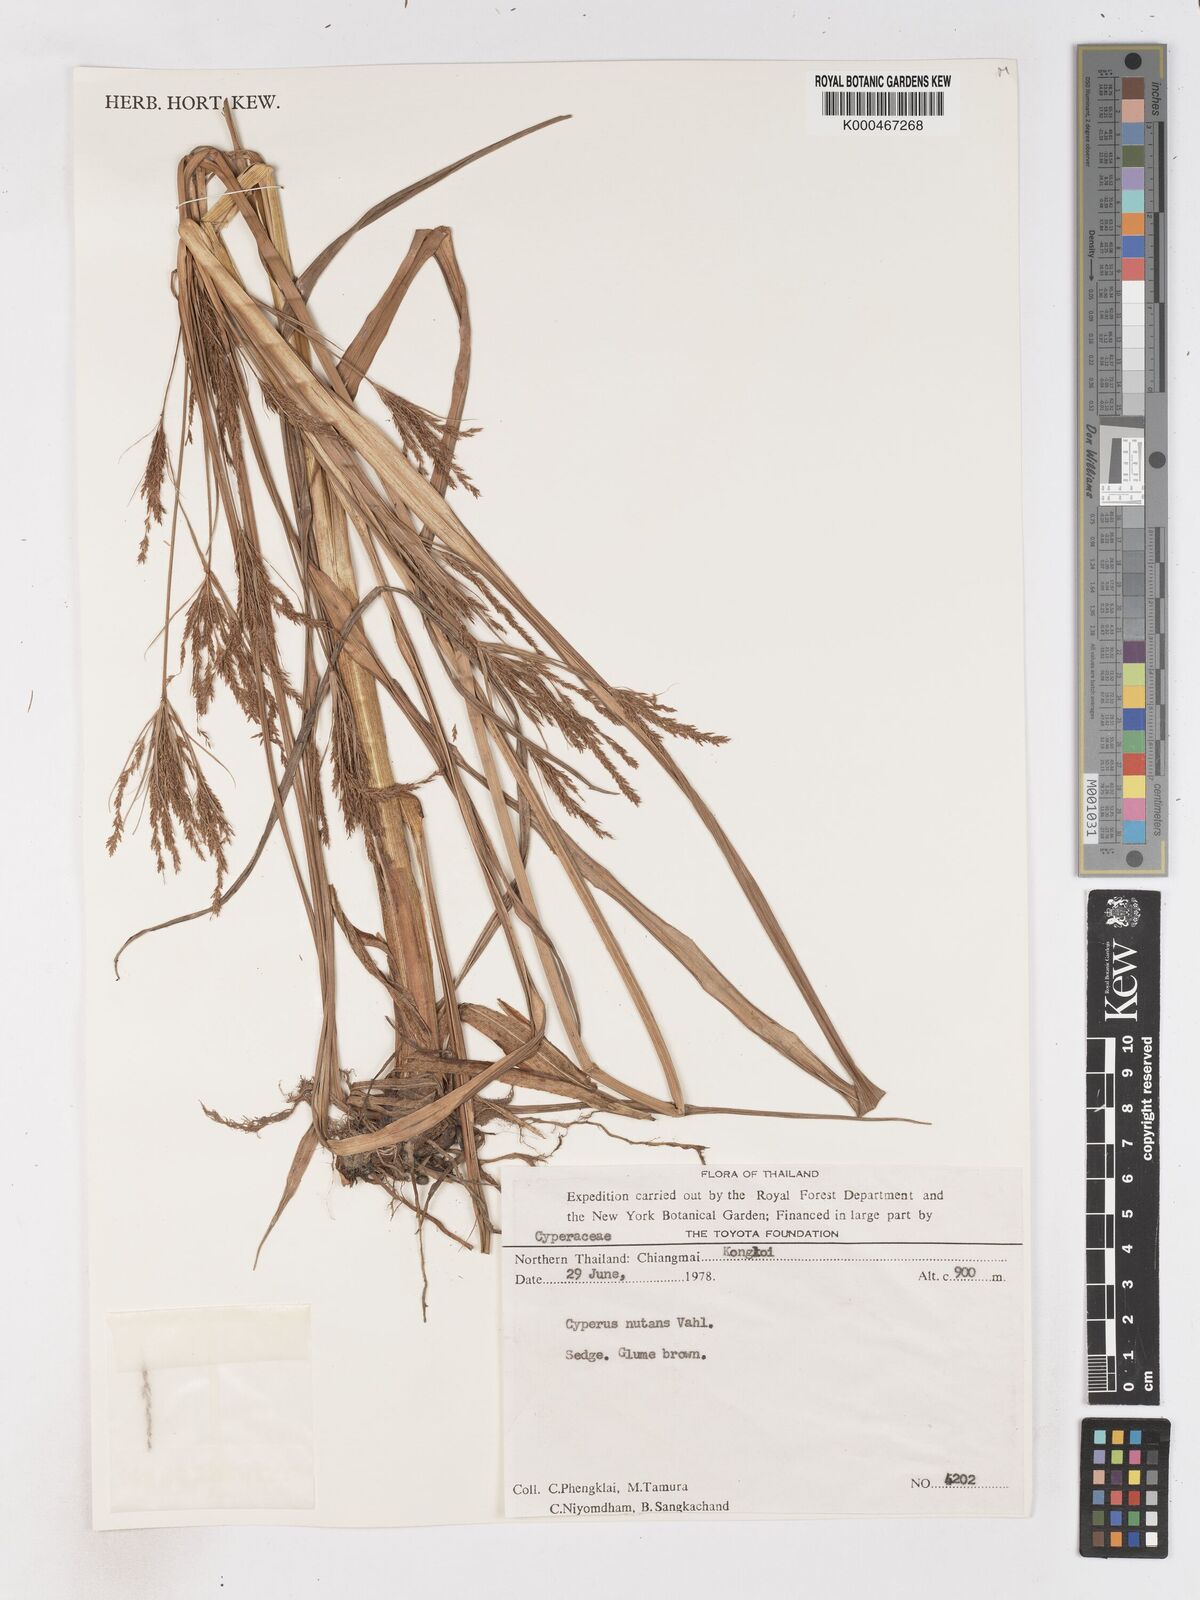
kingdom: Plantae
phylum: Tracheophyta
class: Liliopsida
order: Poales
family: Cyperaceae
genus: Cyperus
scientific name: Cyperus nutans
